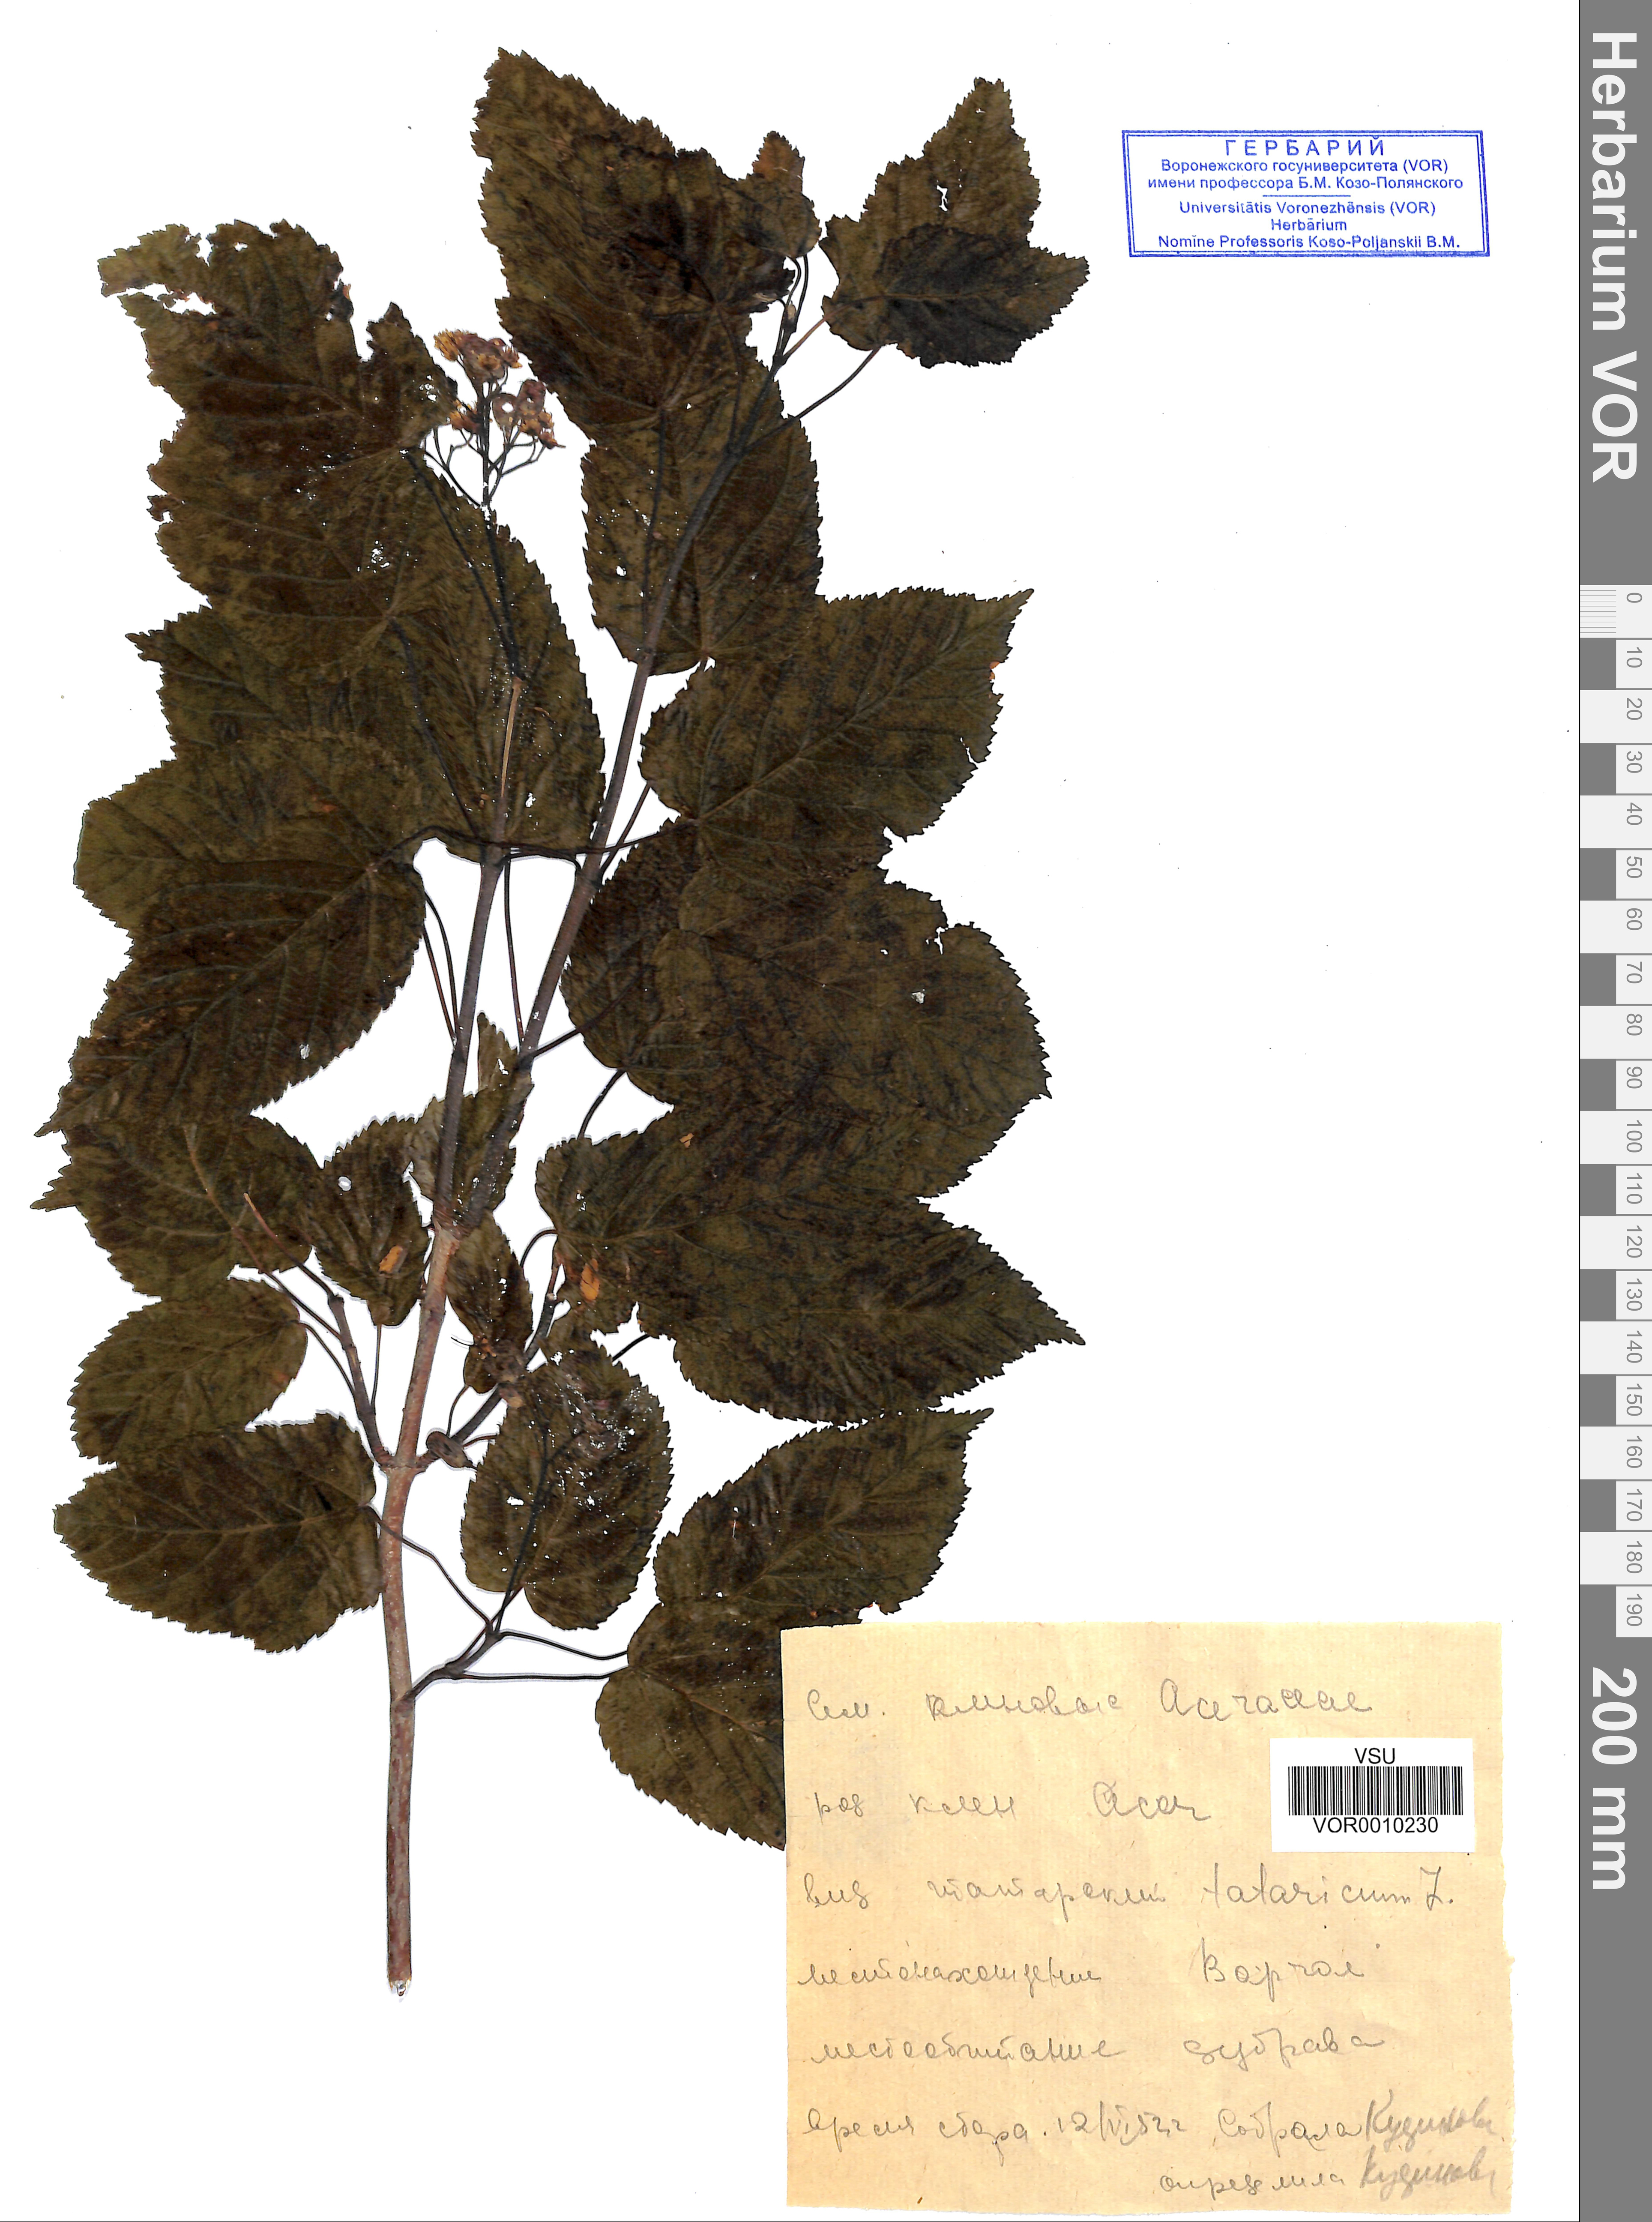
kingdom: Plantae
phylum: Tracheophyta
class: Magnoliopsida
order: Sapindales
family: Sapindaceae
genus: Acer
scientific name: Acer tataricum
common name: Tartar maple
